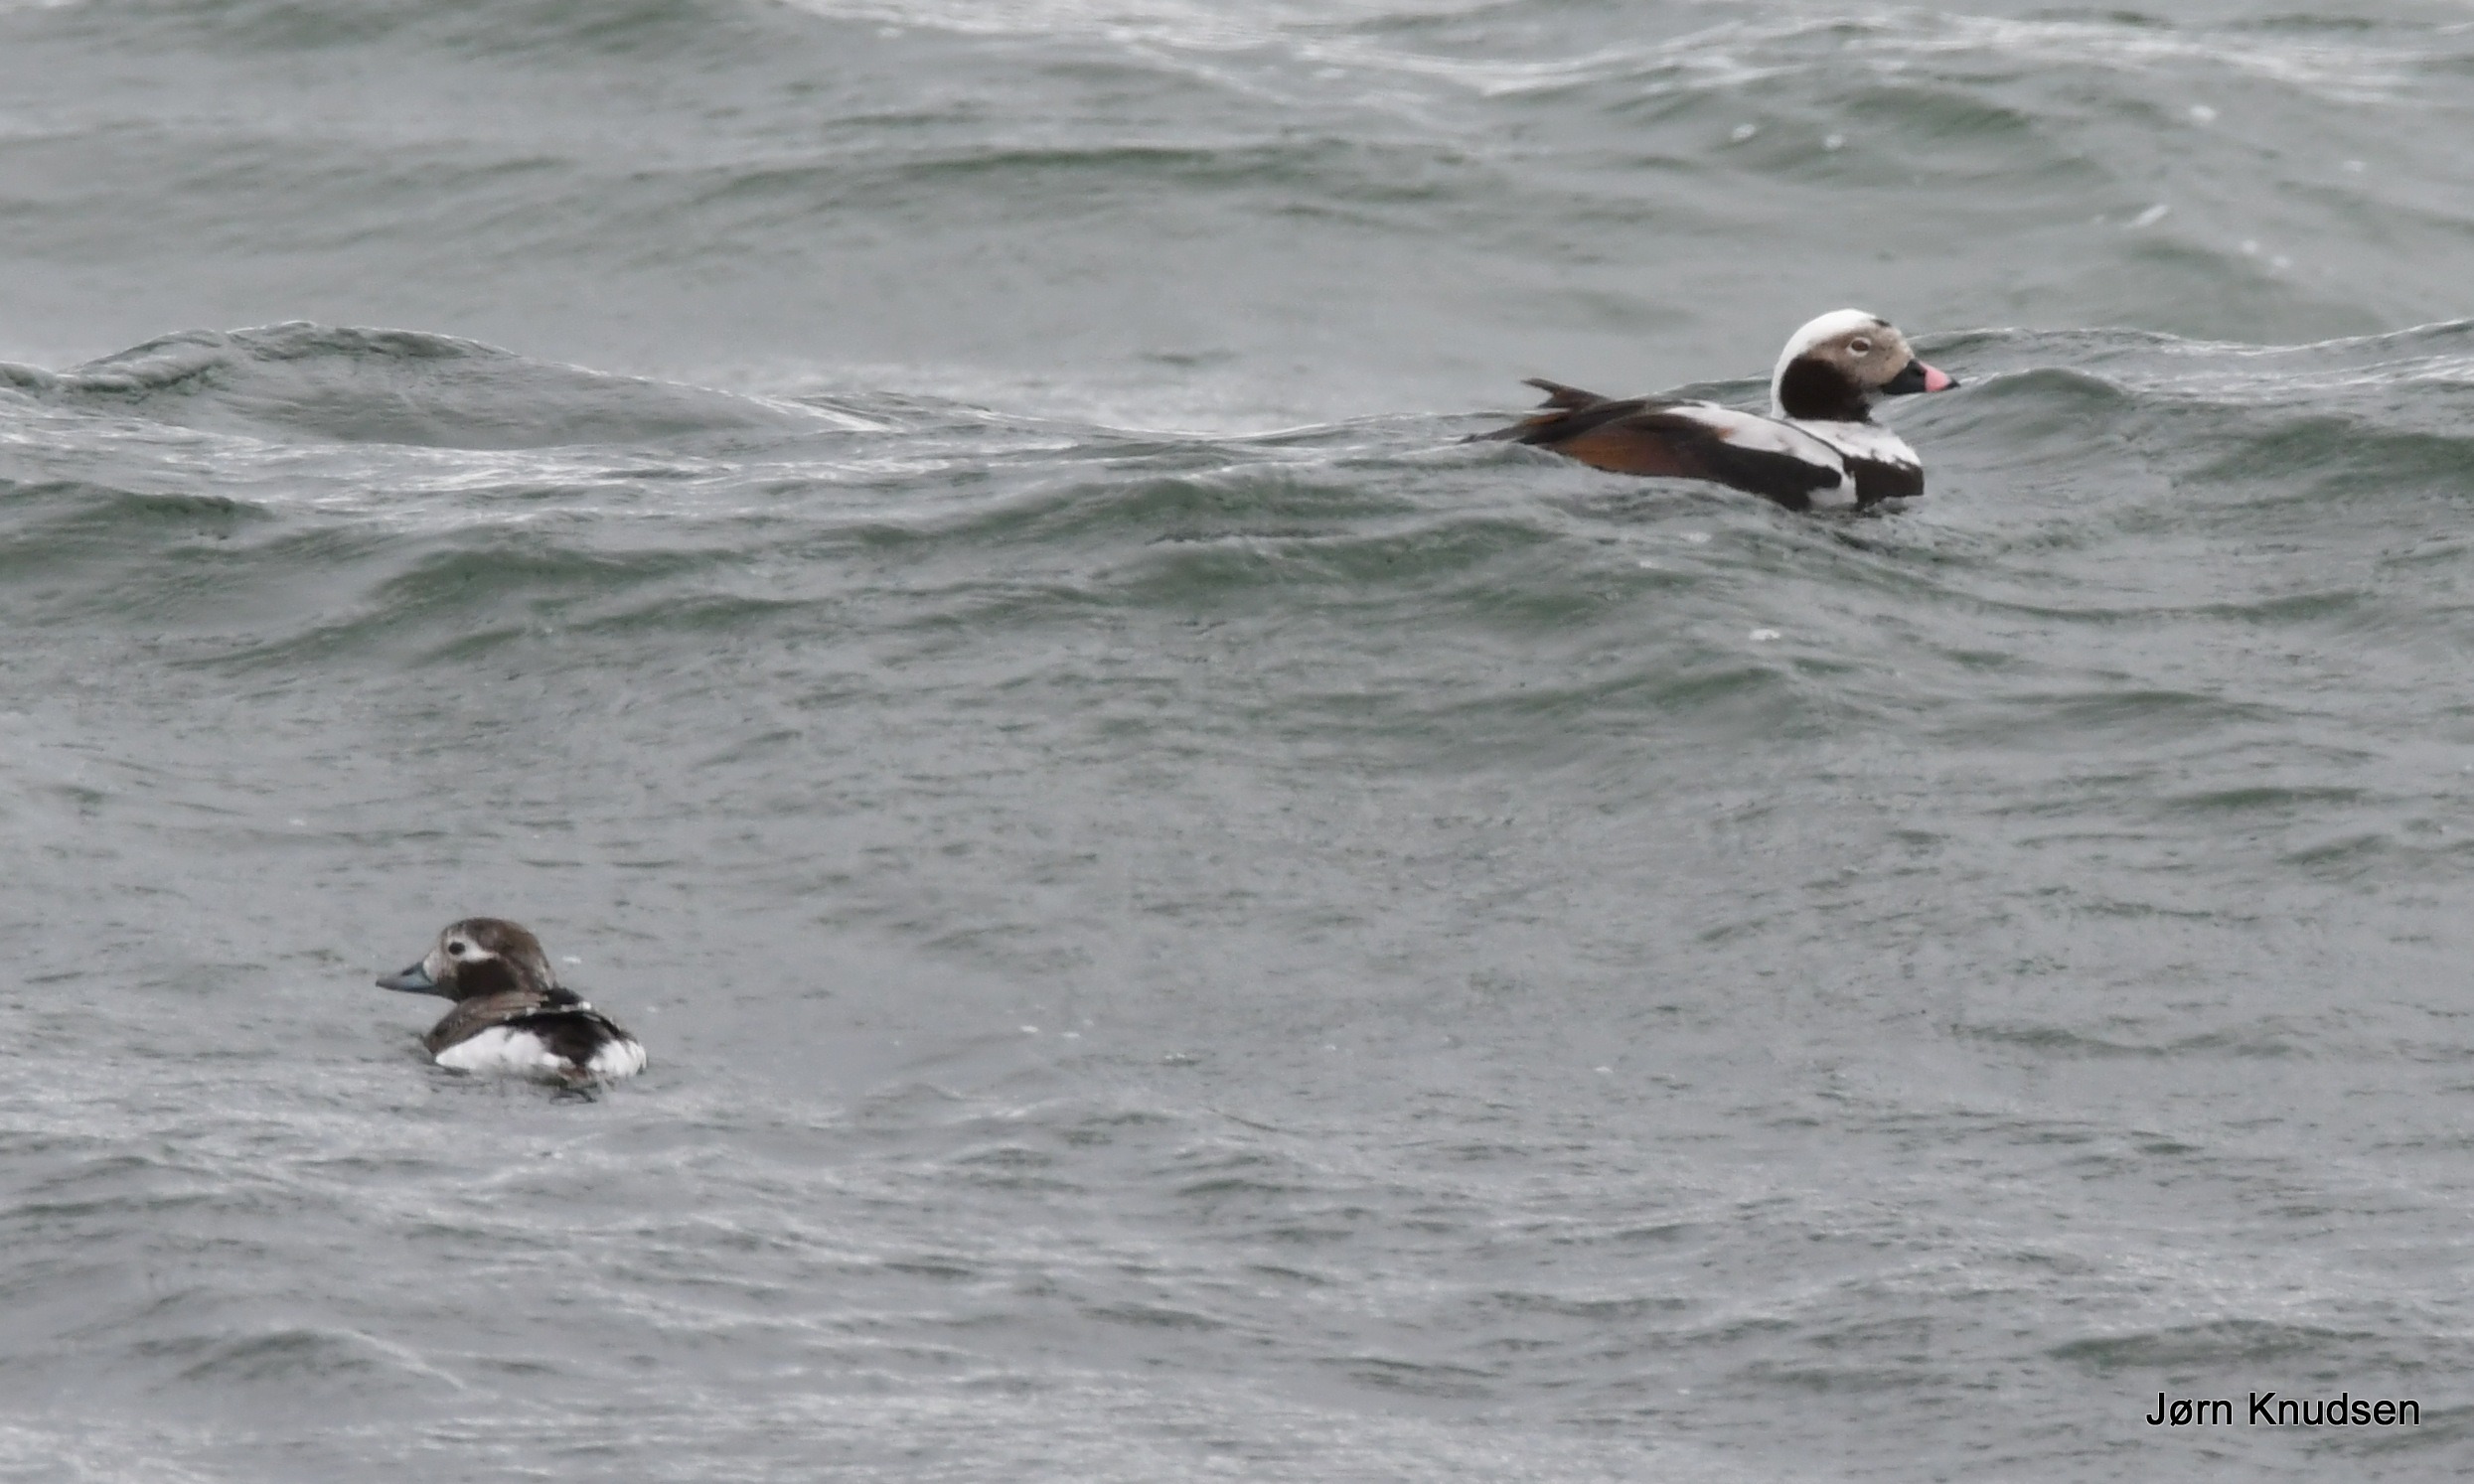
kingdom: Animalia
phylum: Chordata
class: Aves
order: Anseriformes
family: Anatidae
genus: Clangula
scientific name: Clangula hyemalis
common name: Havlit
